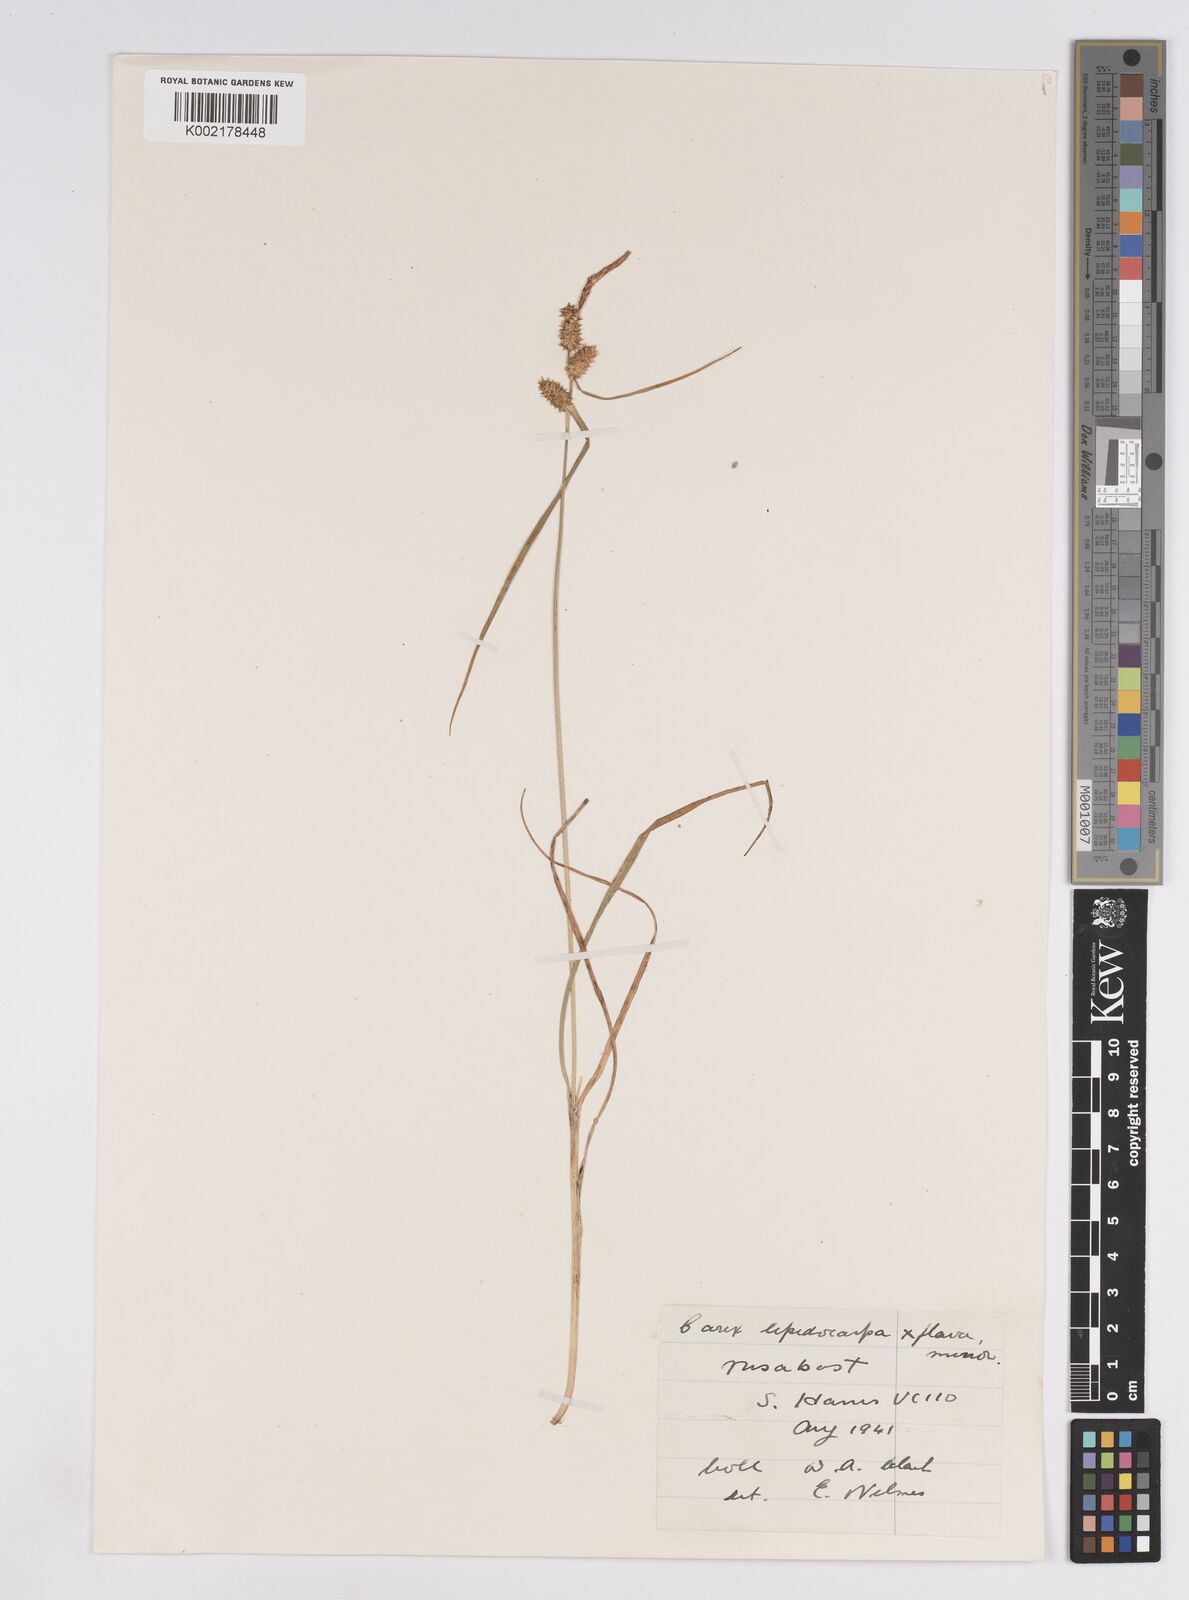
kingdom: Plantae
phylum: Tracheophyta
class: Liliopsida
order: Poales
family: Cyperaceae
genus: Carex
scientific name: Carex lepidocarpa
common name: Long-stalked yellow-sedge
